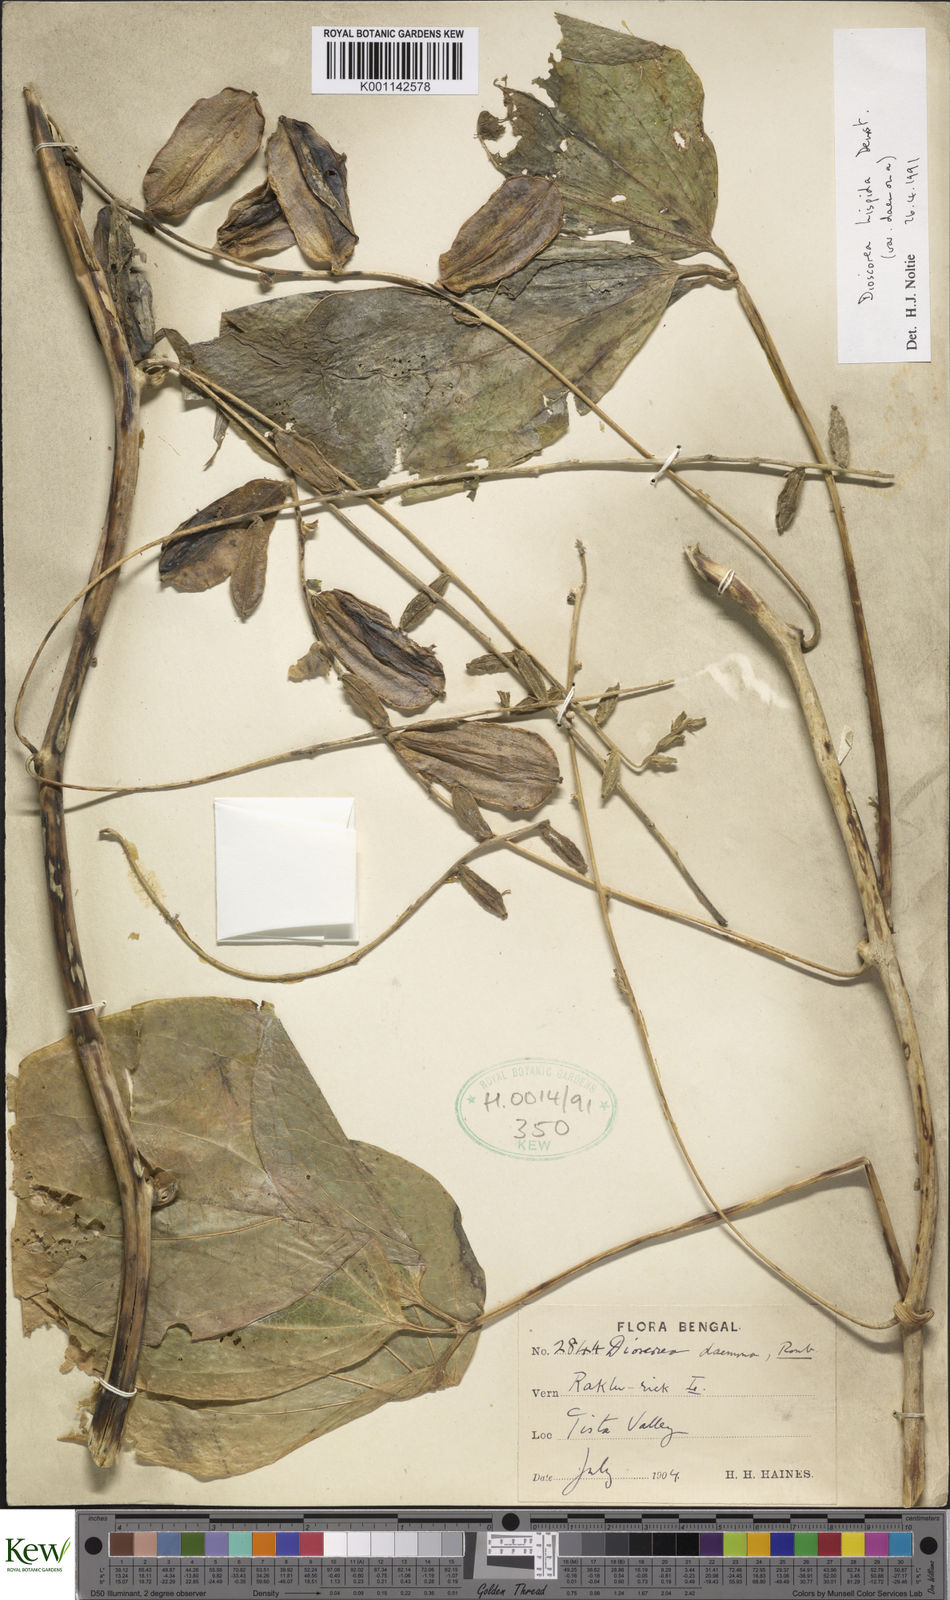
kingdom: Plantae
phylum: Tracheophyta
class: Liliopsida
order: Dioscoreales
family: Dioscoreaceae
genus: Dioscorea
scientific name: Dioscorea pentaphylla
